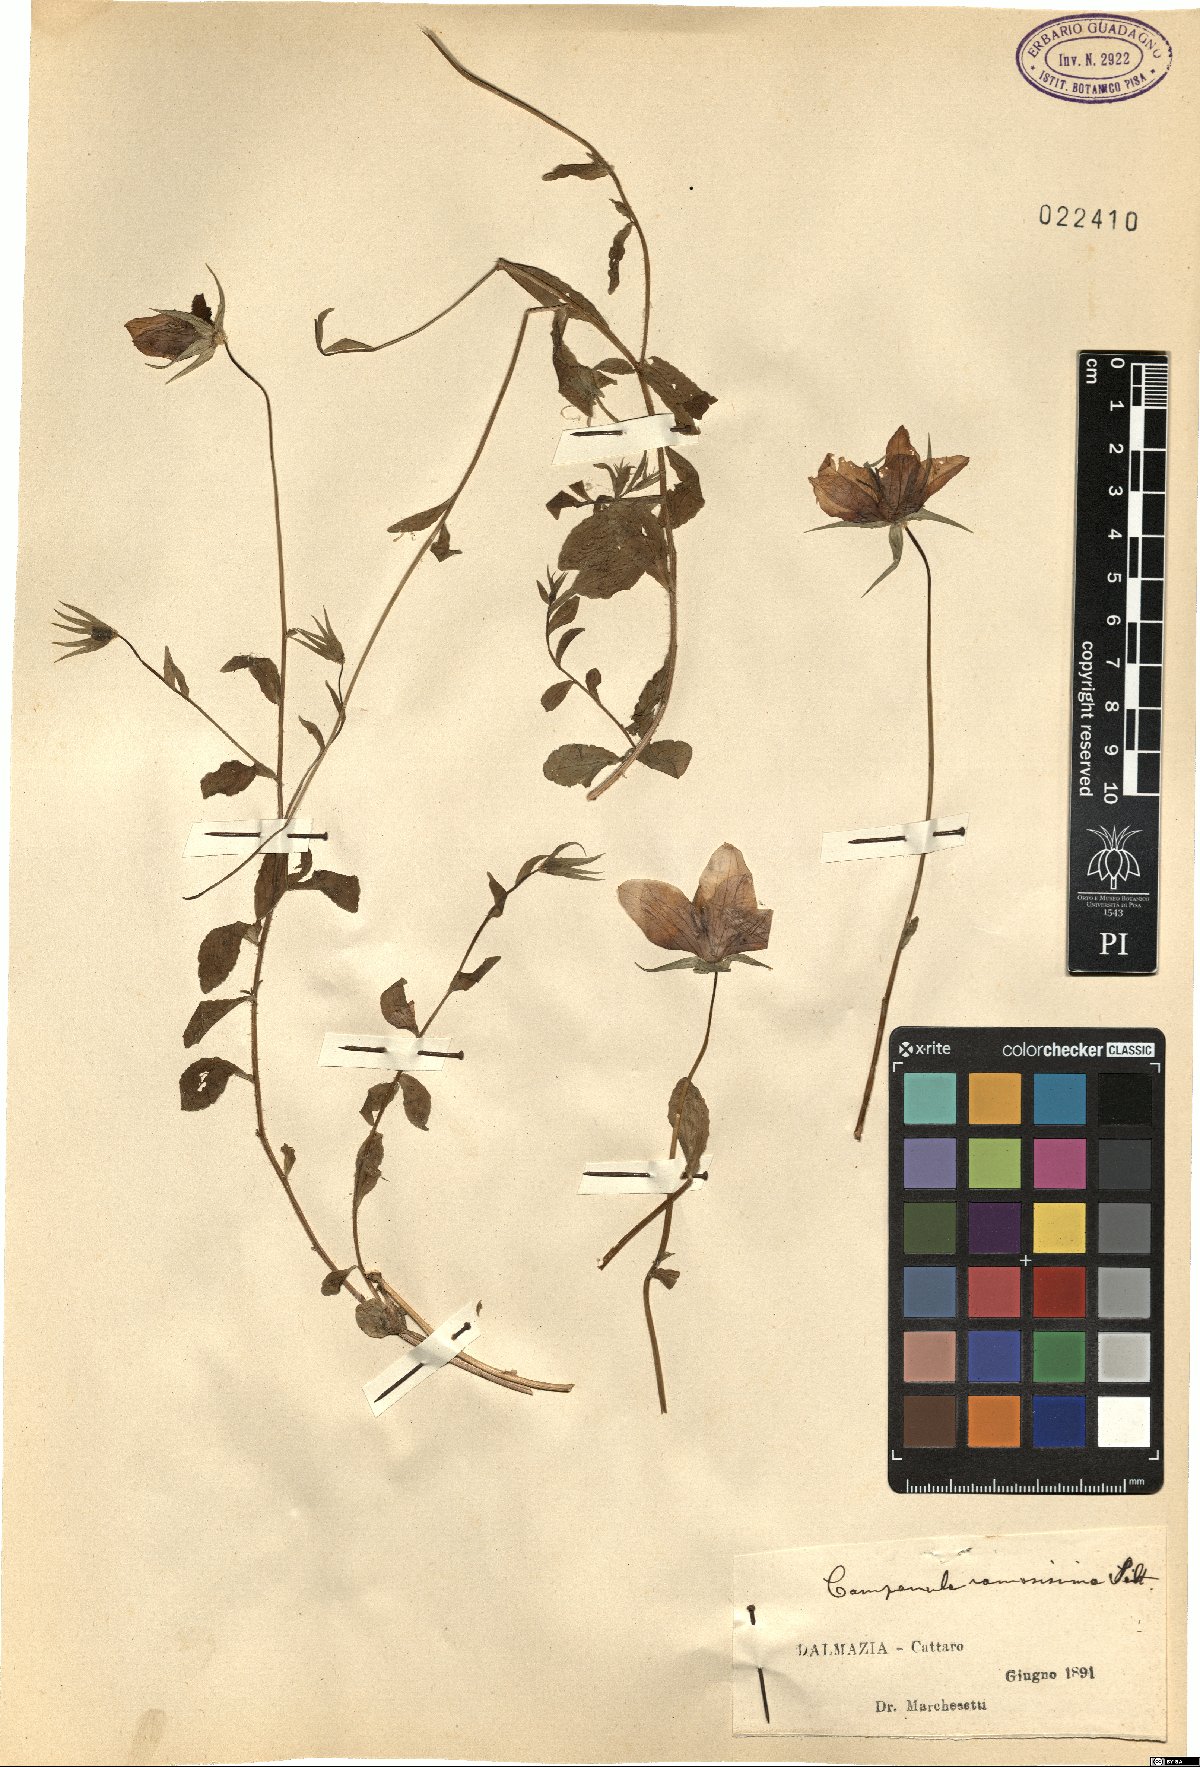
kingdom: Plantae
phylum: Tracheophyta
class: Magnoliopsida
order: Asterales
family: Campanulaceae
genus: Campanula
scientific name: Campanula ramosissima
